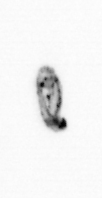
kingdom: Animalia
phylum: Arthropoda
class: Copepoda
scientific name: Copepoda
